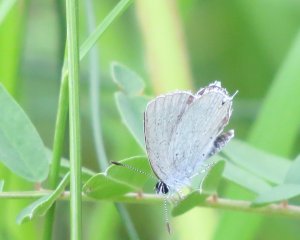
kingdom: Animalia
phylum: Arthropoda
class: Insecta
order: Lepidoptera
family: Lycaenidae
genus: Elkalyce
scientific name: Elkalyce amyntula
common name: Western Tailed-Blue
